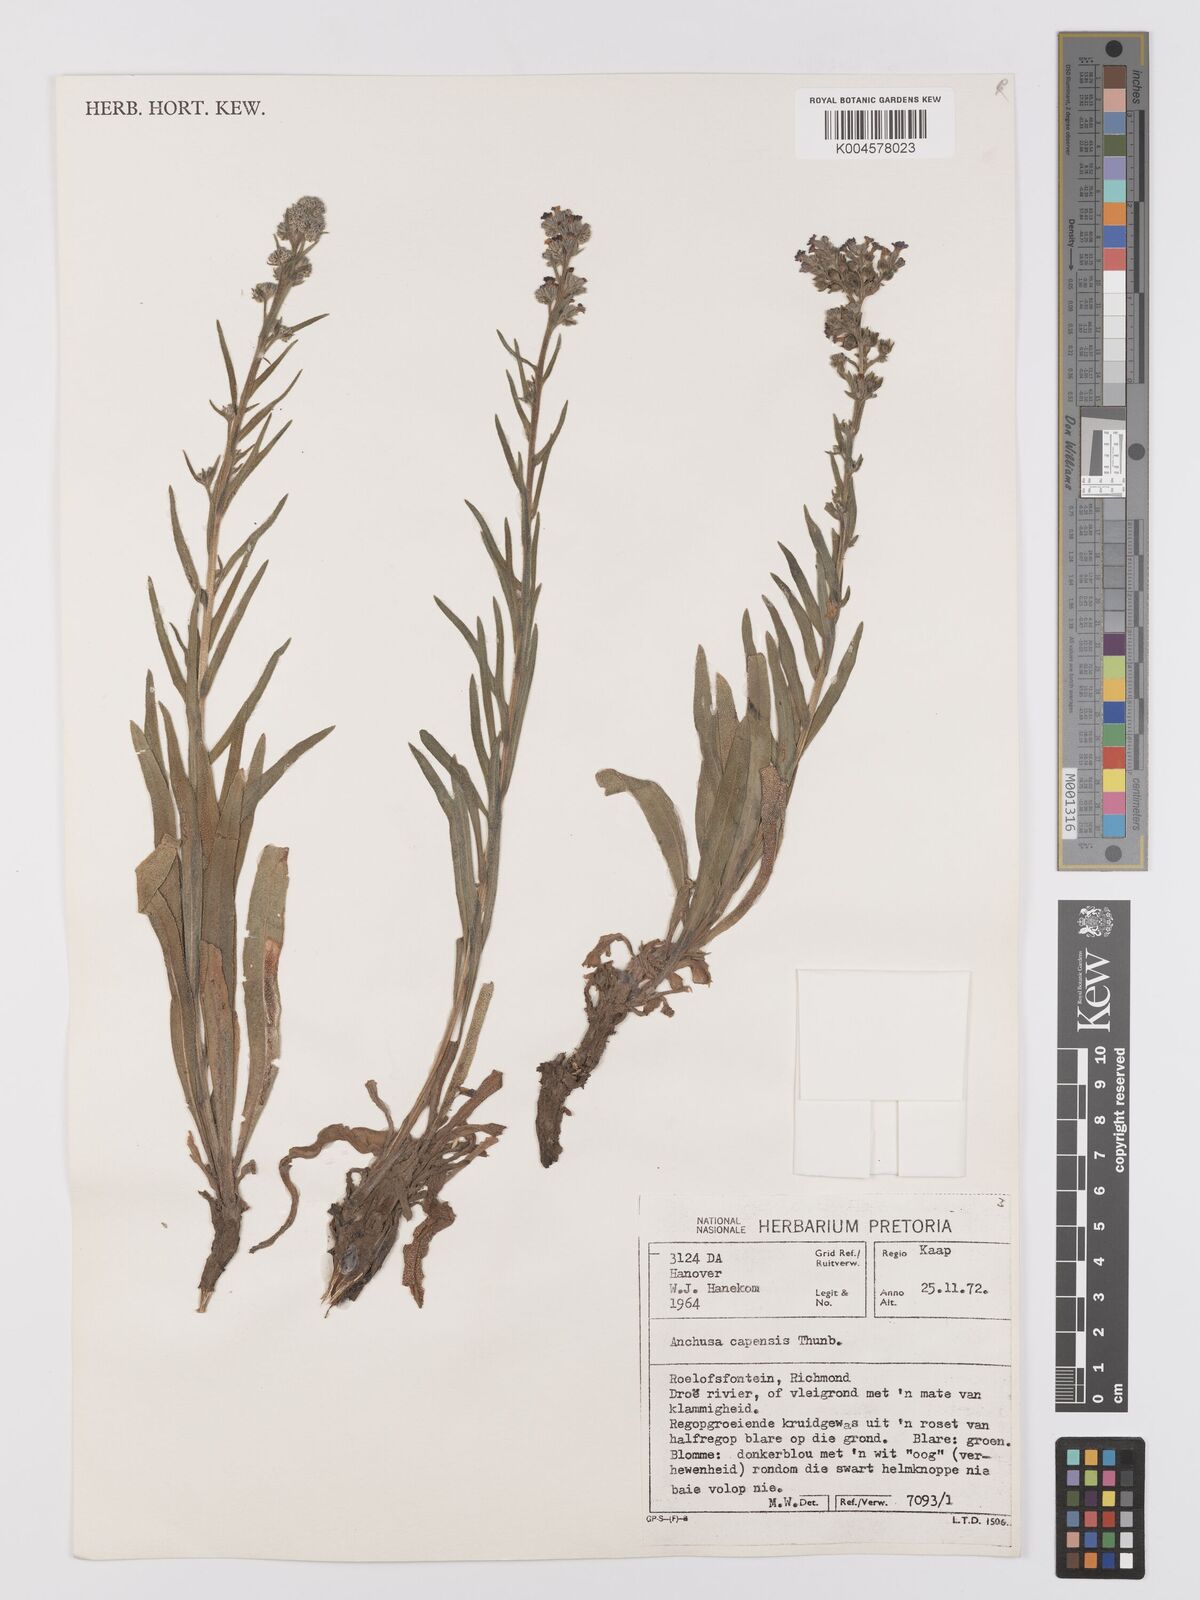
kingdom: Plantae
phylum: Tracheophyta
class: Magnoliopsida
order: Boraginales
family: Boraginaceae
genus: Anchusa
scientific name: Anchusa capensis
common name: Cape bugloss
